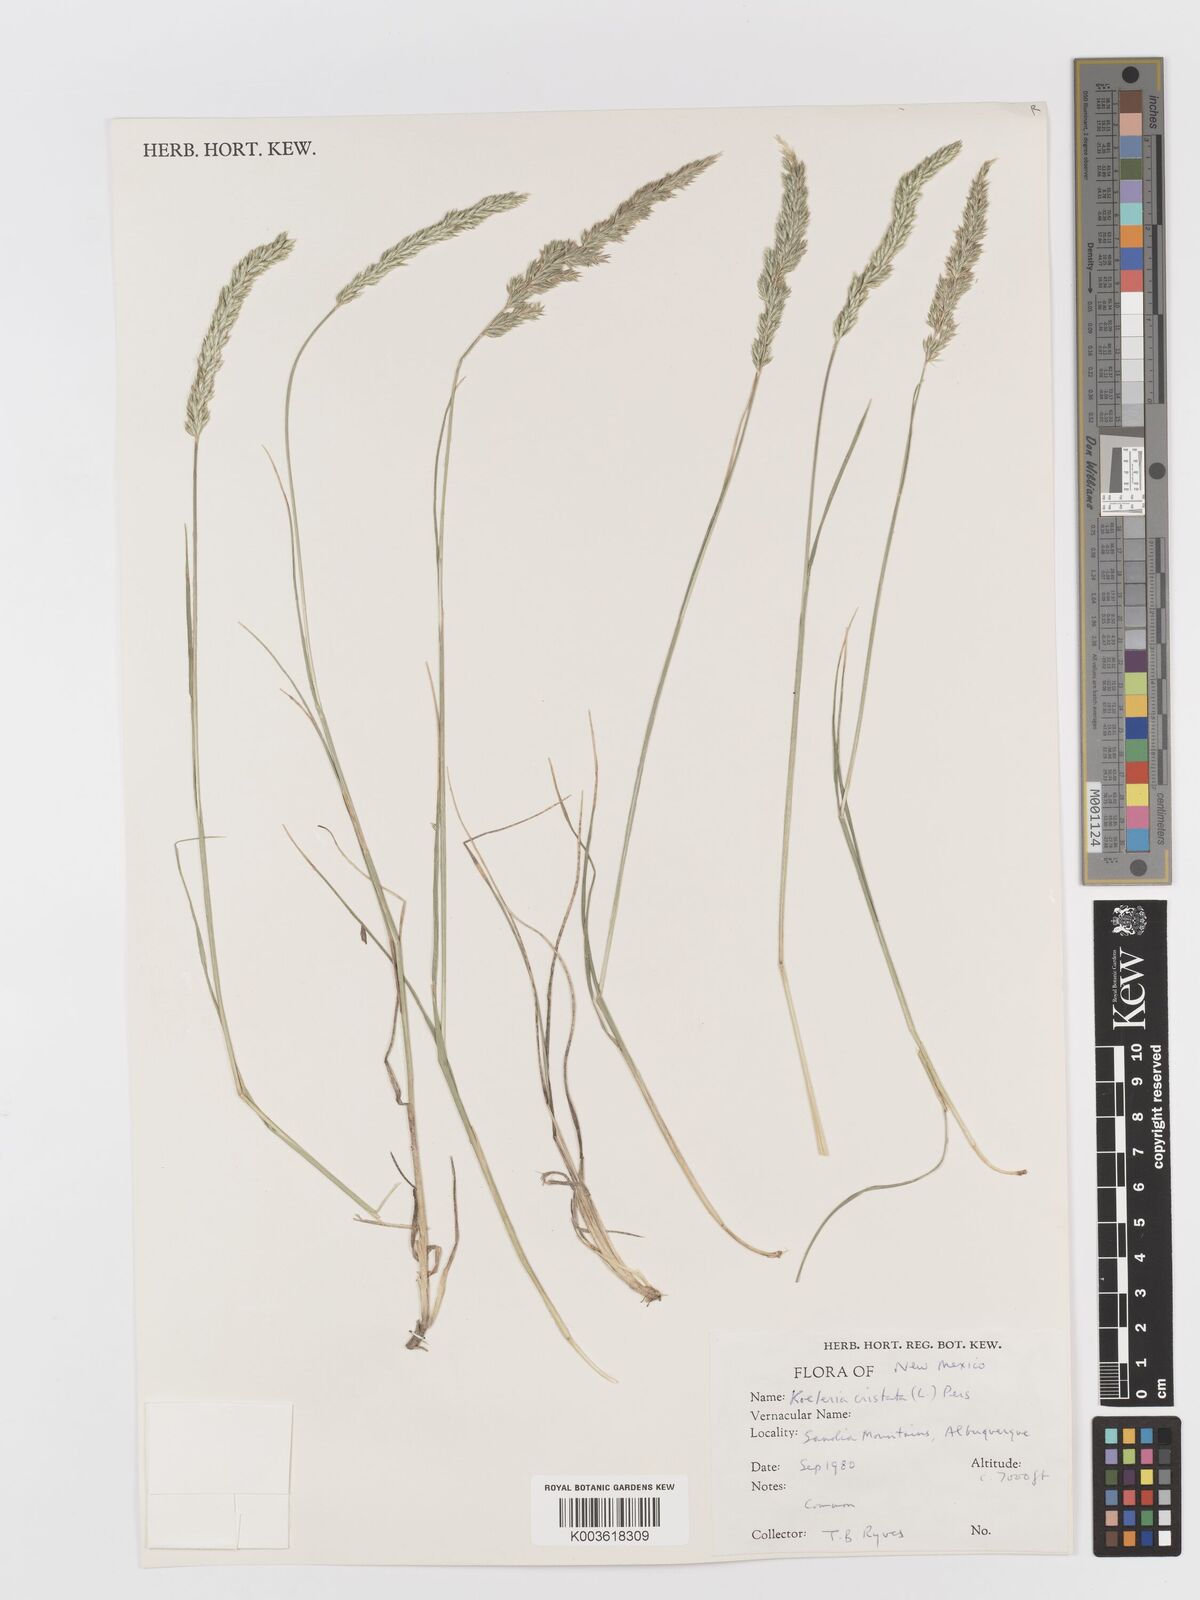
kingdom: Plantae
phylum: Tracheophyta
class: Liliopsida
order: Poales
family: Poaceae
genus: Koeleria
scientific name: Koeleria macrantha
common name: Crested hair-grass
